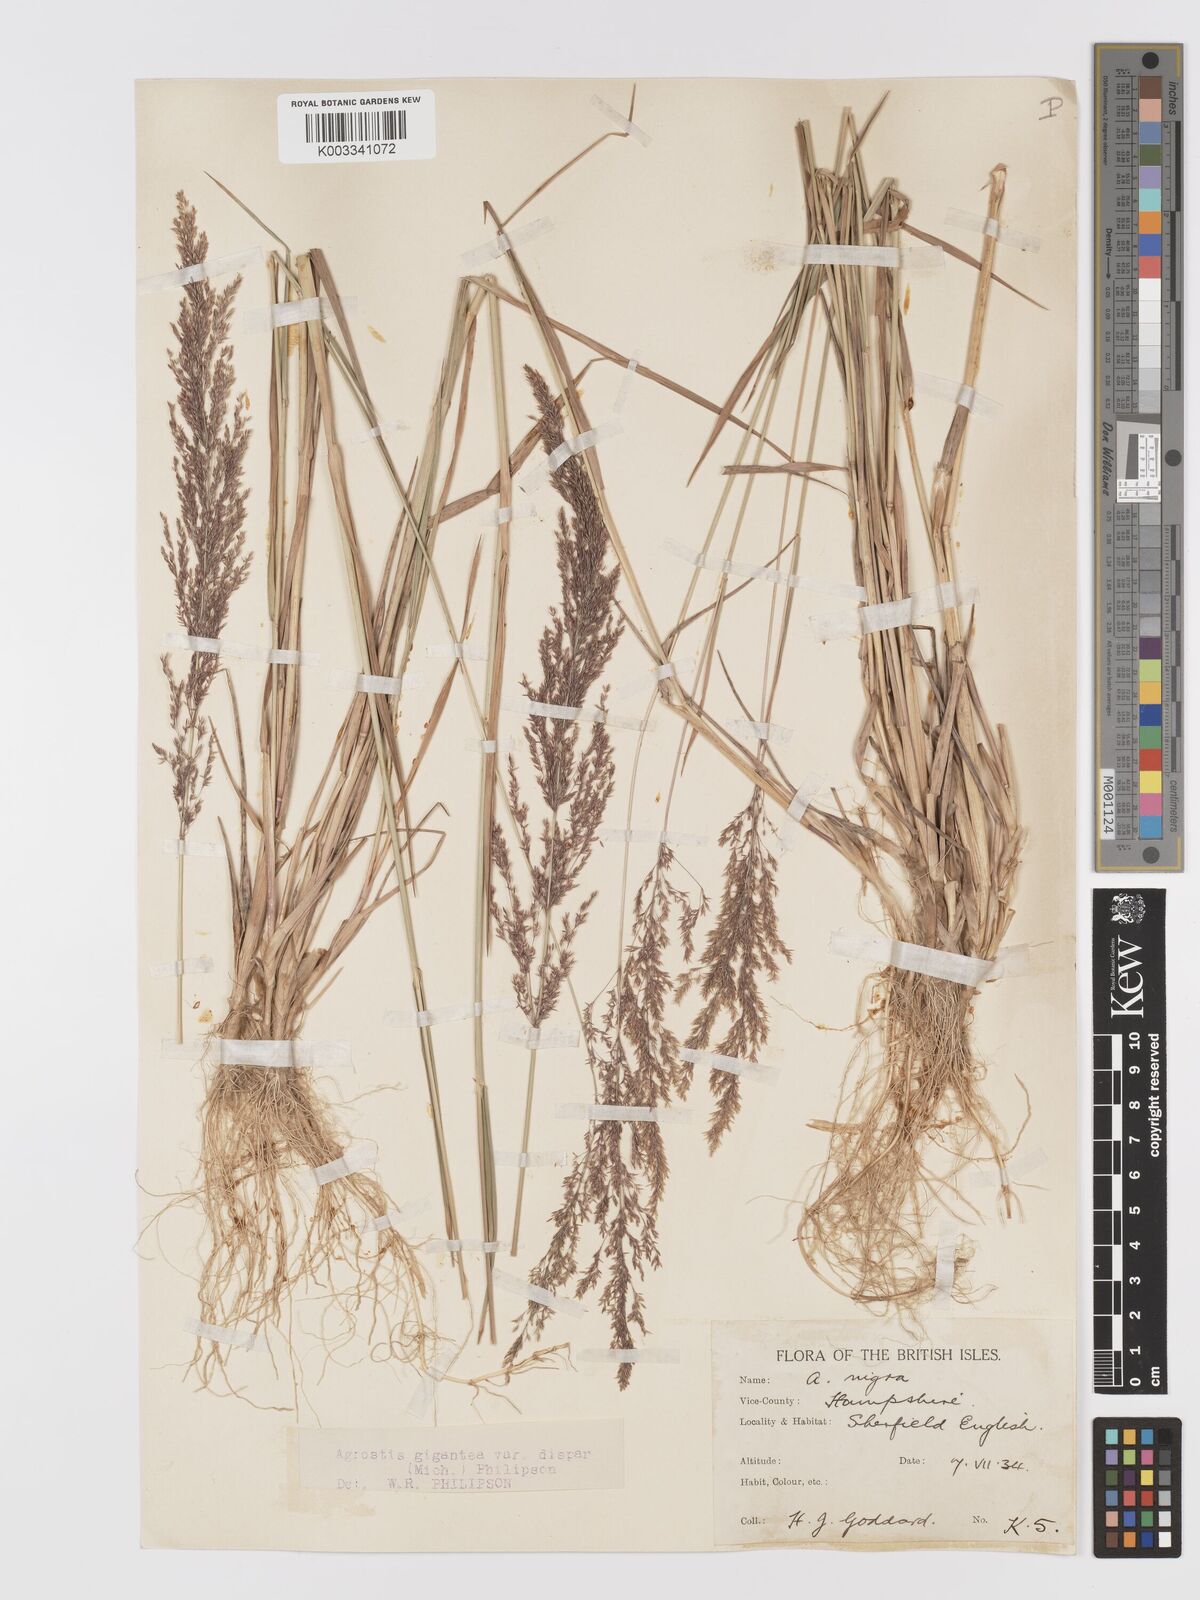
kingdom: Plantae
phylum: Tracheophyta
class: Liliopsida
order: Poales
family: Poaceae
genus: Agrostis
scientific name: Agrostis gigantea
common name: Black bent
